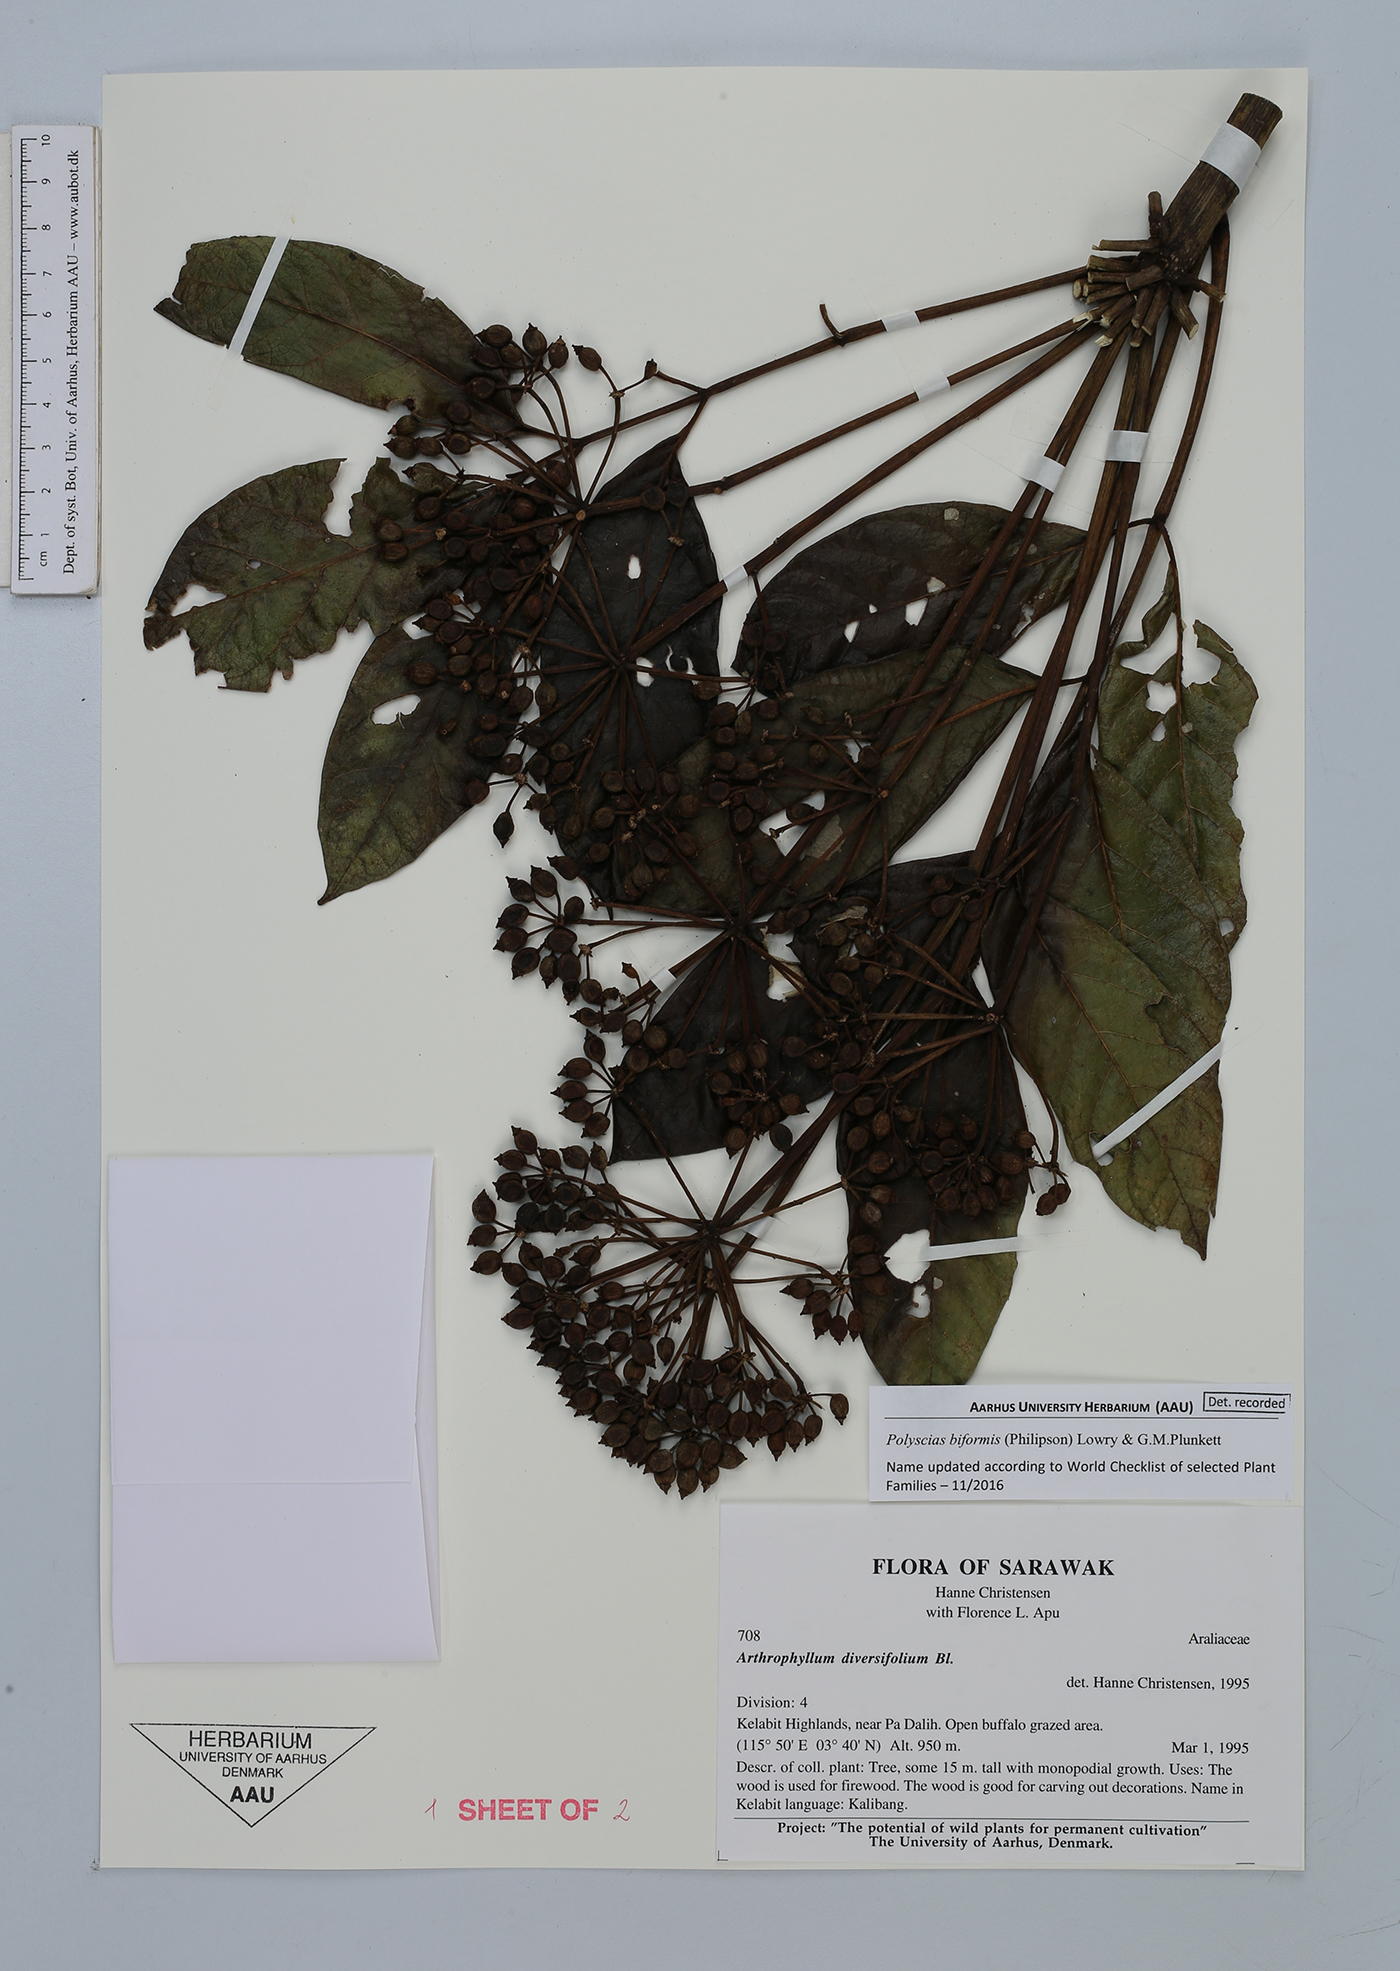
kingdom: Plantae
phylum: Tracheophyta
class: Magnoliopsida
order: Apiales
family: Araliaceae
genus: Polyscias
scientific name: Polyscias biformis
